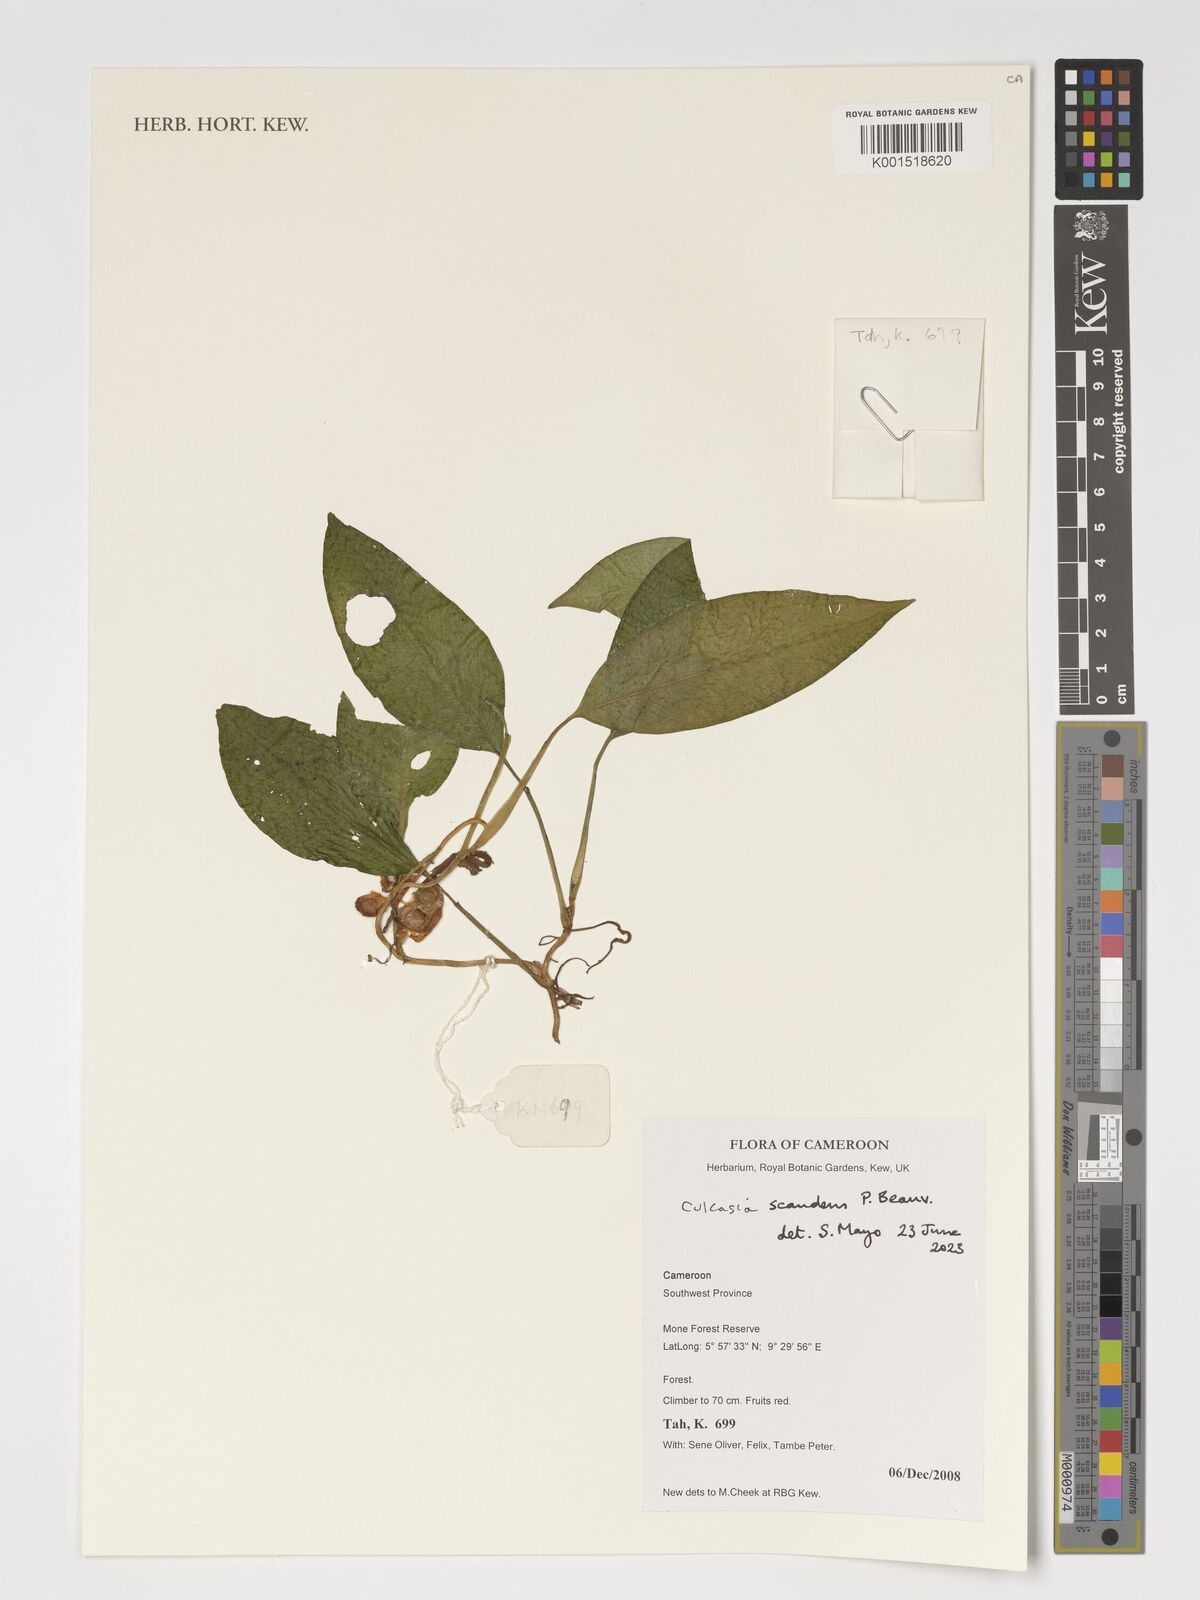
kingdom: Plantae
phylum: Tracheophyta
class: Liliopsida
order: Alismatales
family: Araceae
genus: Culcasia
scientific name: Culcasia scandens
